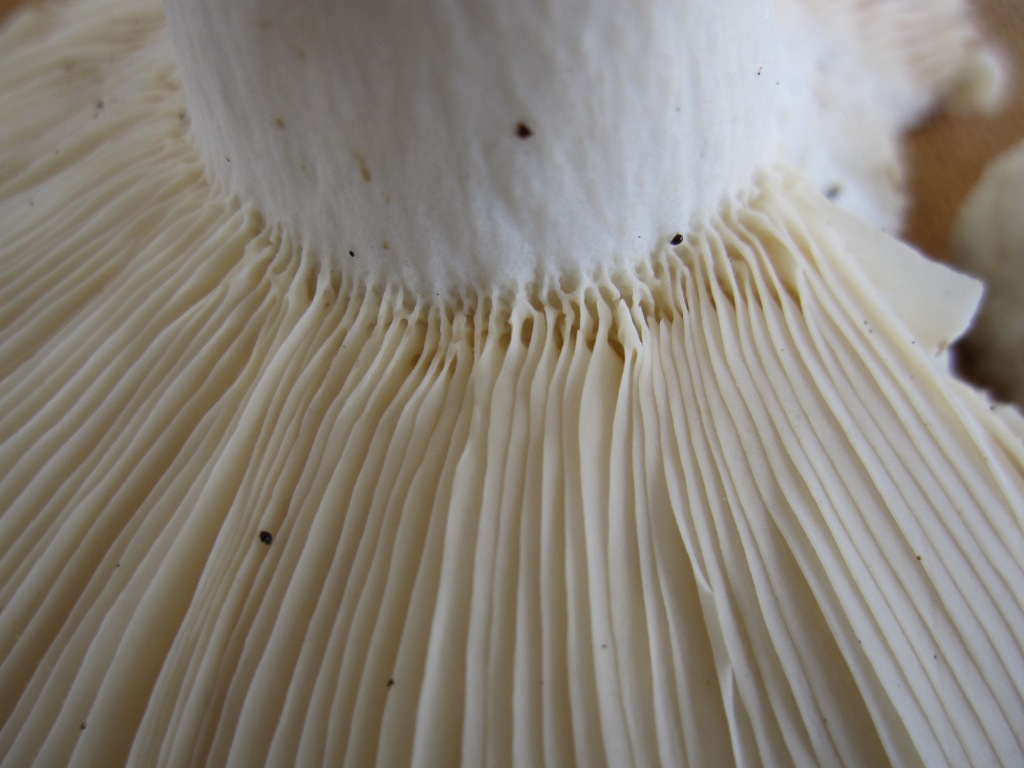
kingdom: Fungi
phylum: Basidiomycota
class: Agaricomycetes
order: Russulales
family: Russulaceae
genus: Russula
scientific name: Russula faustiana
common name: olivengrå skørhat
